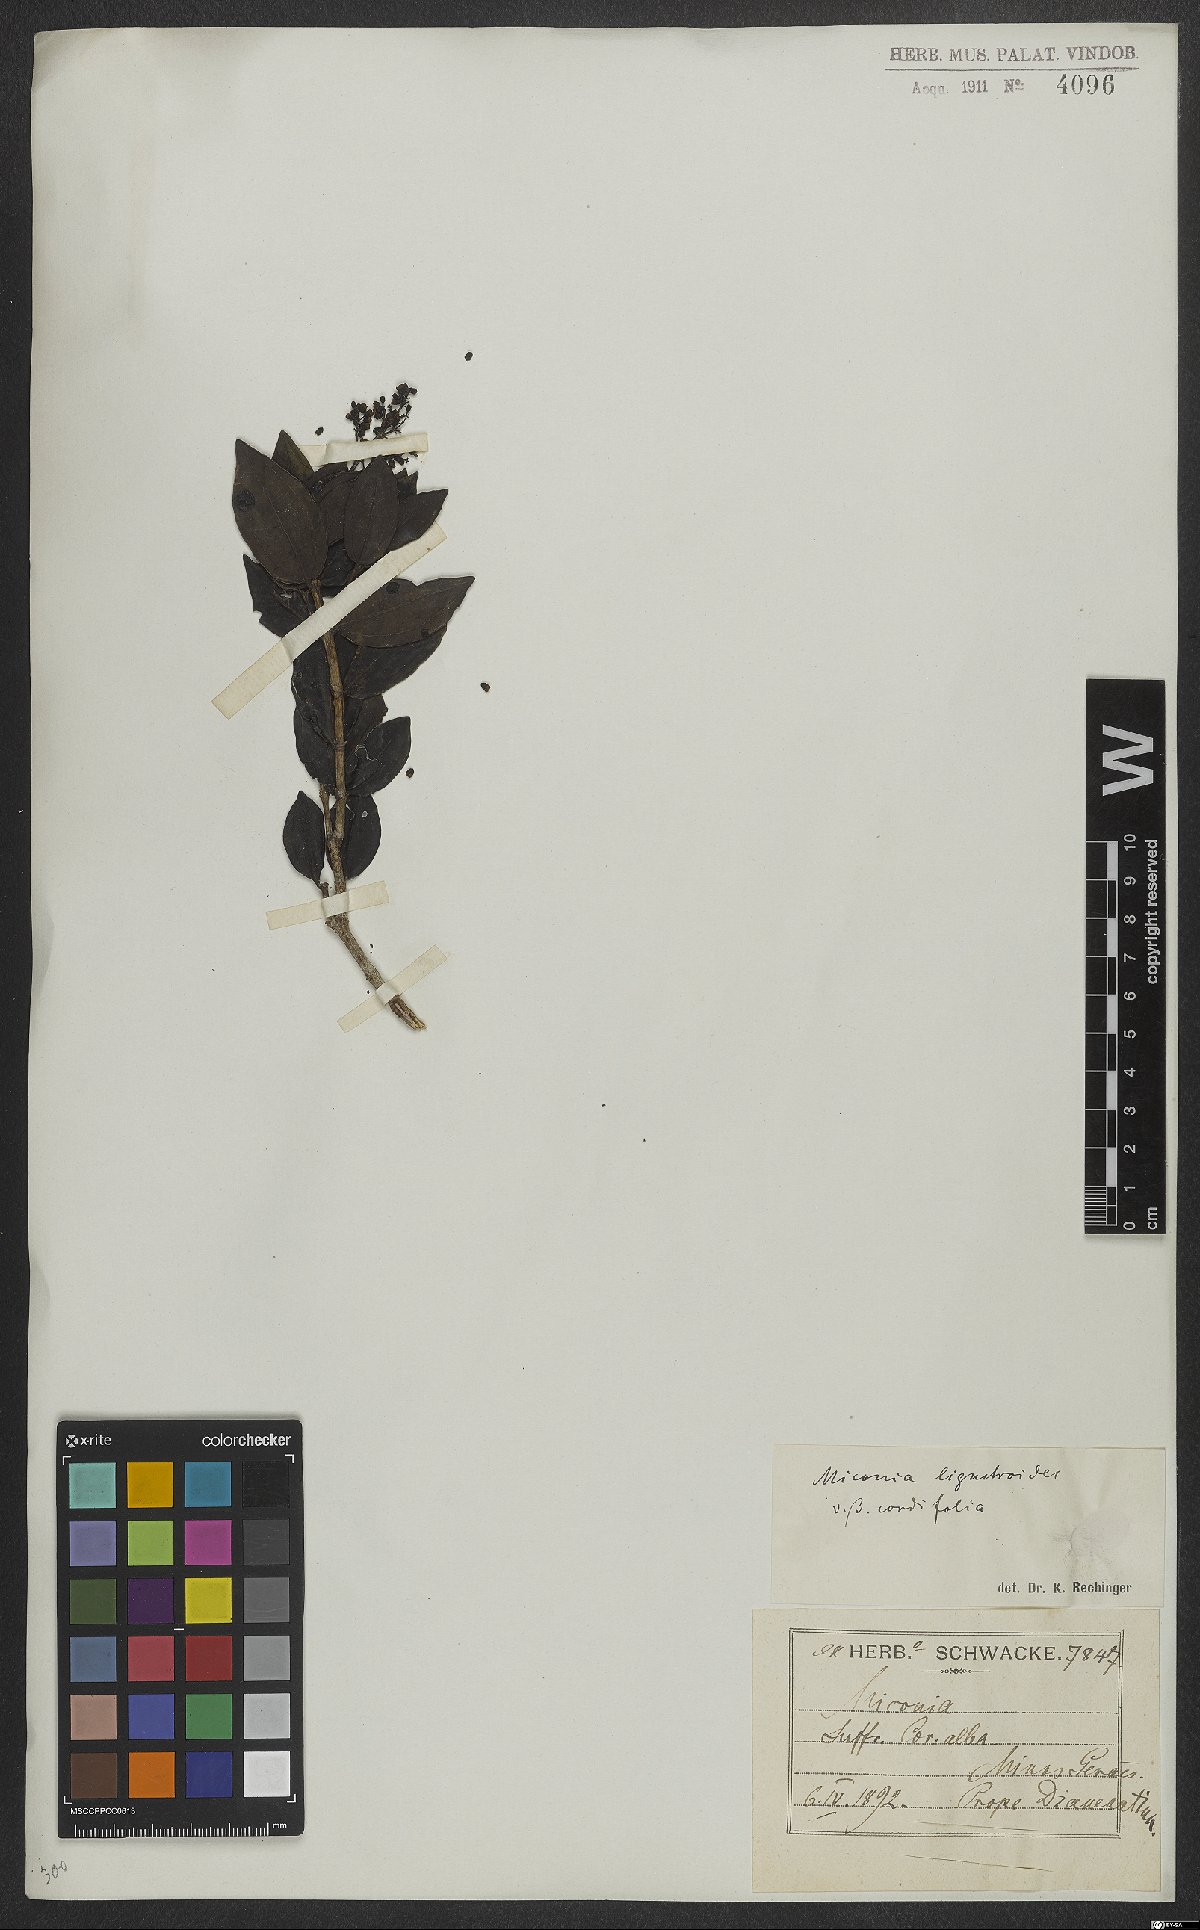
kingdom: Plantae
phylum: Tracheophyta
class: Magnoliopsida
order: Myrtales
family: Melastomataceae
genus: Miconia
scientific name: Miconia ligustroides
